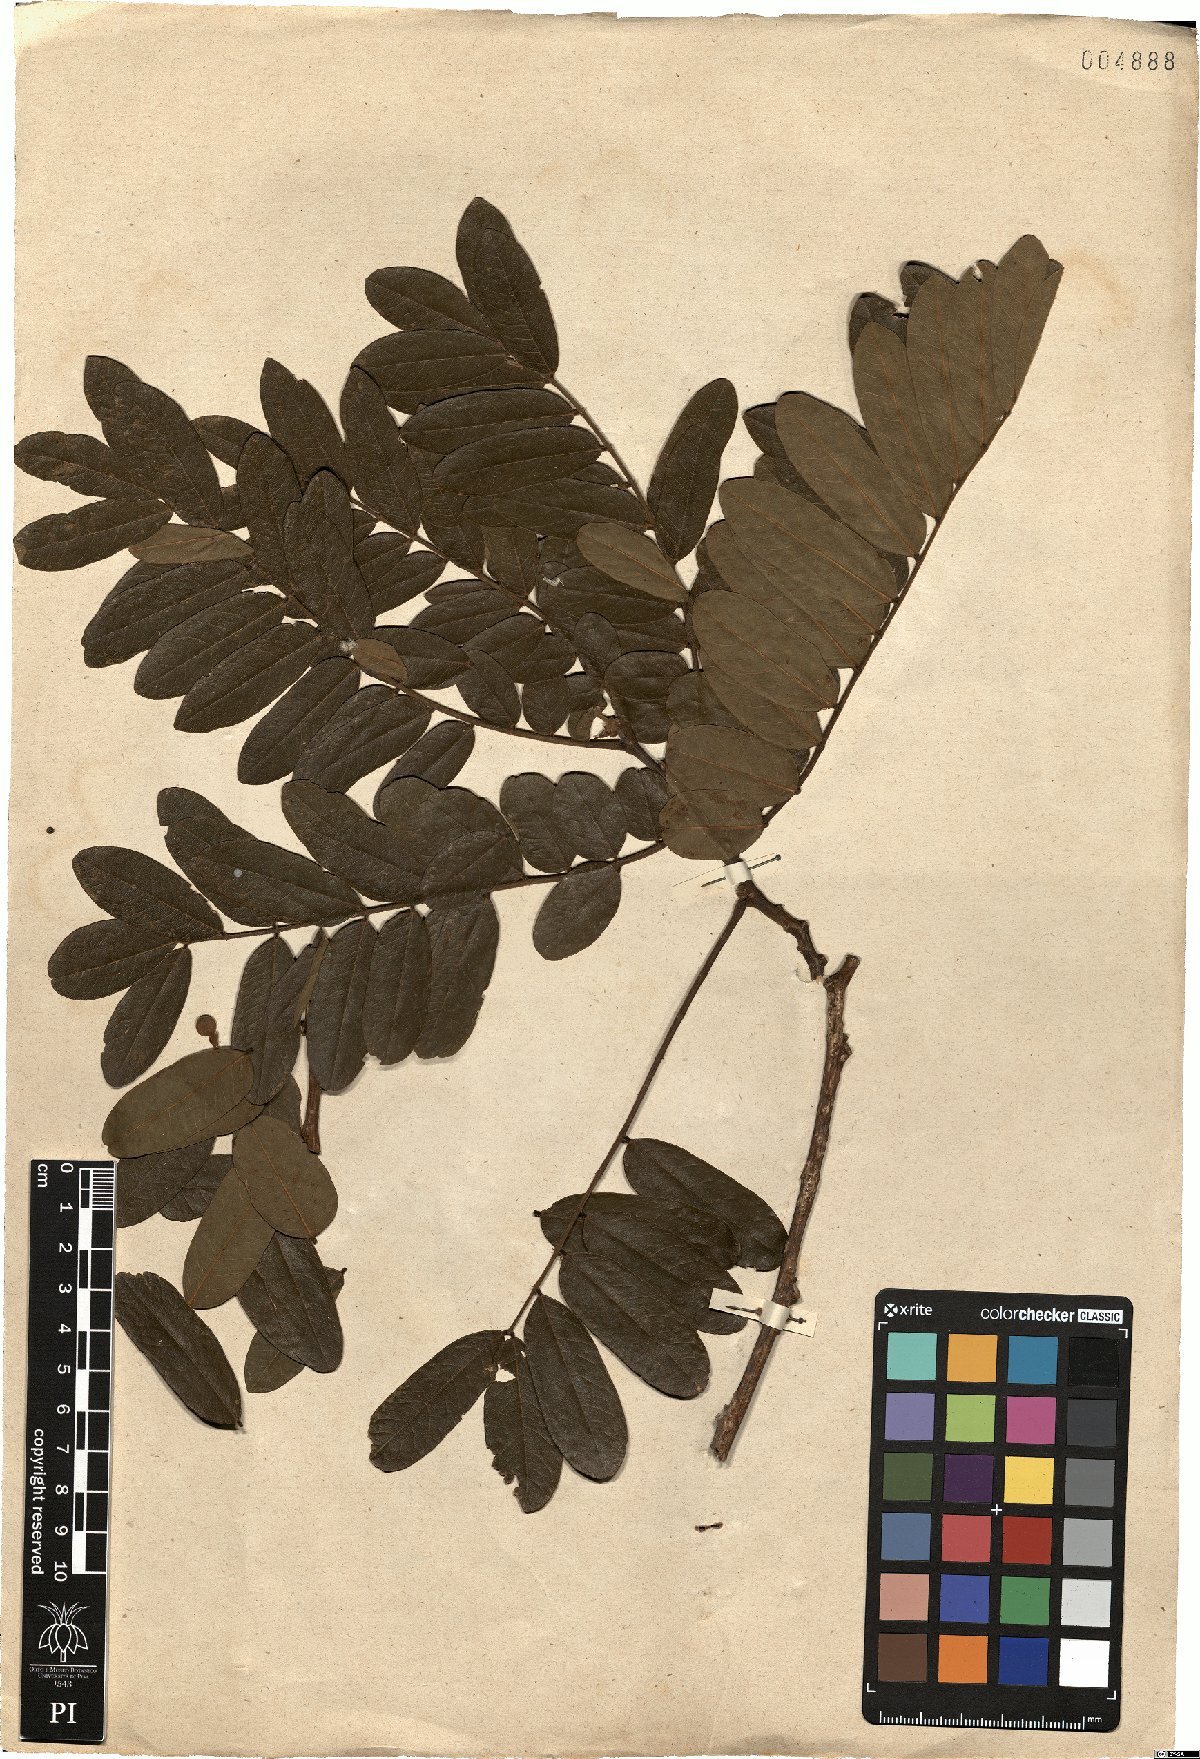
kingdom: Plantae
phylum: Tracheophyta
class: Magnoliopsida
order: Fabales
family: Fabaceae
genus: Swartzia
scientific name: Swartzia flaemingii
